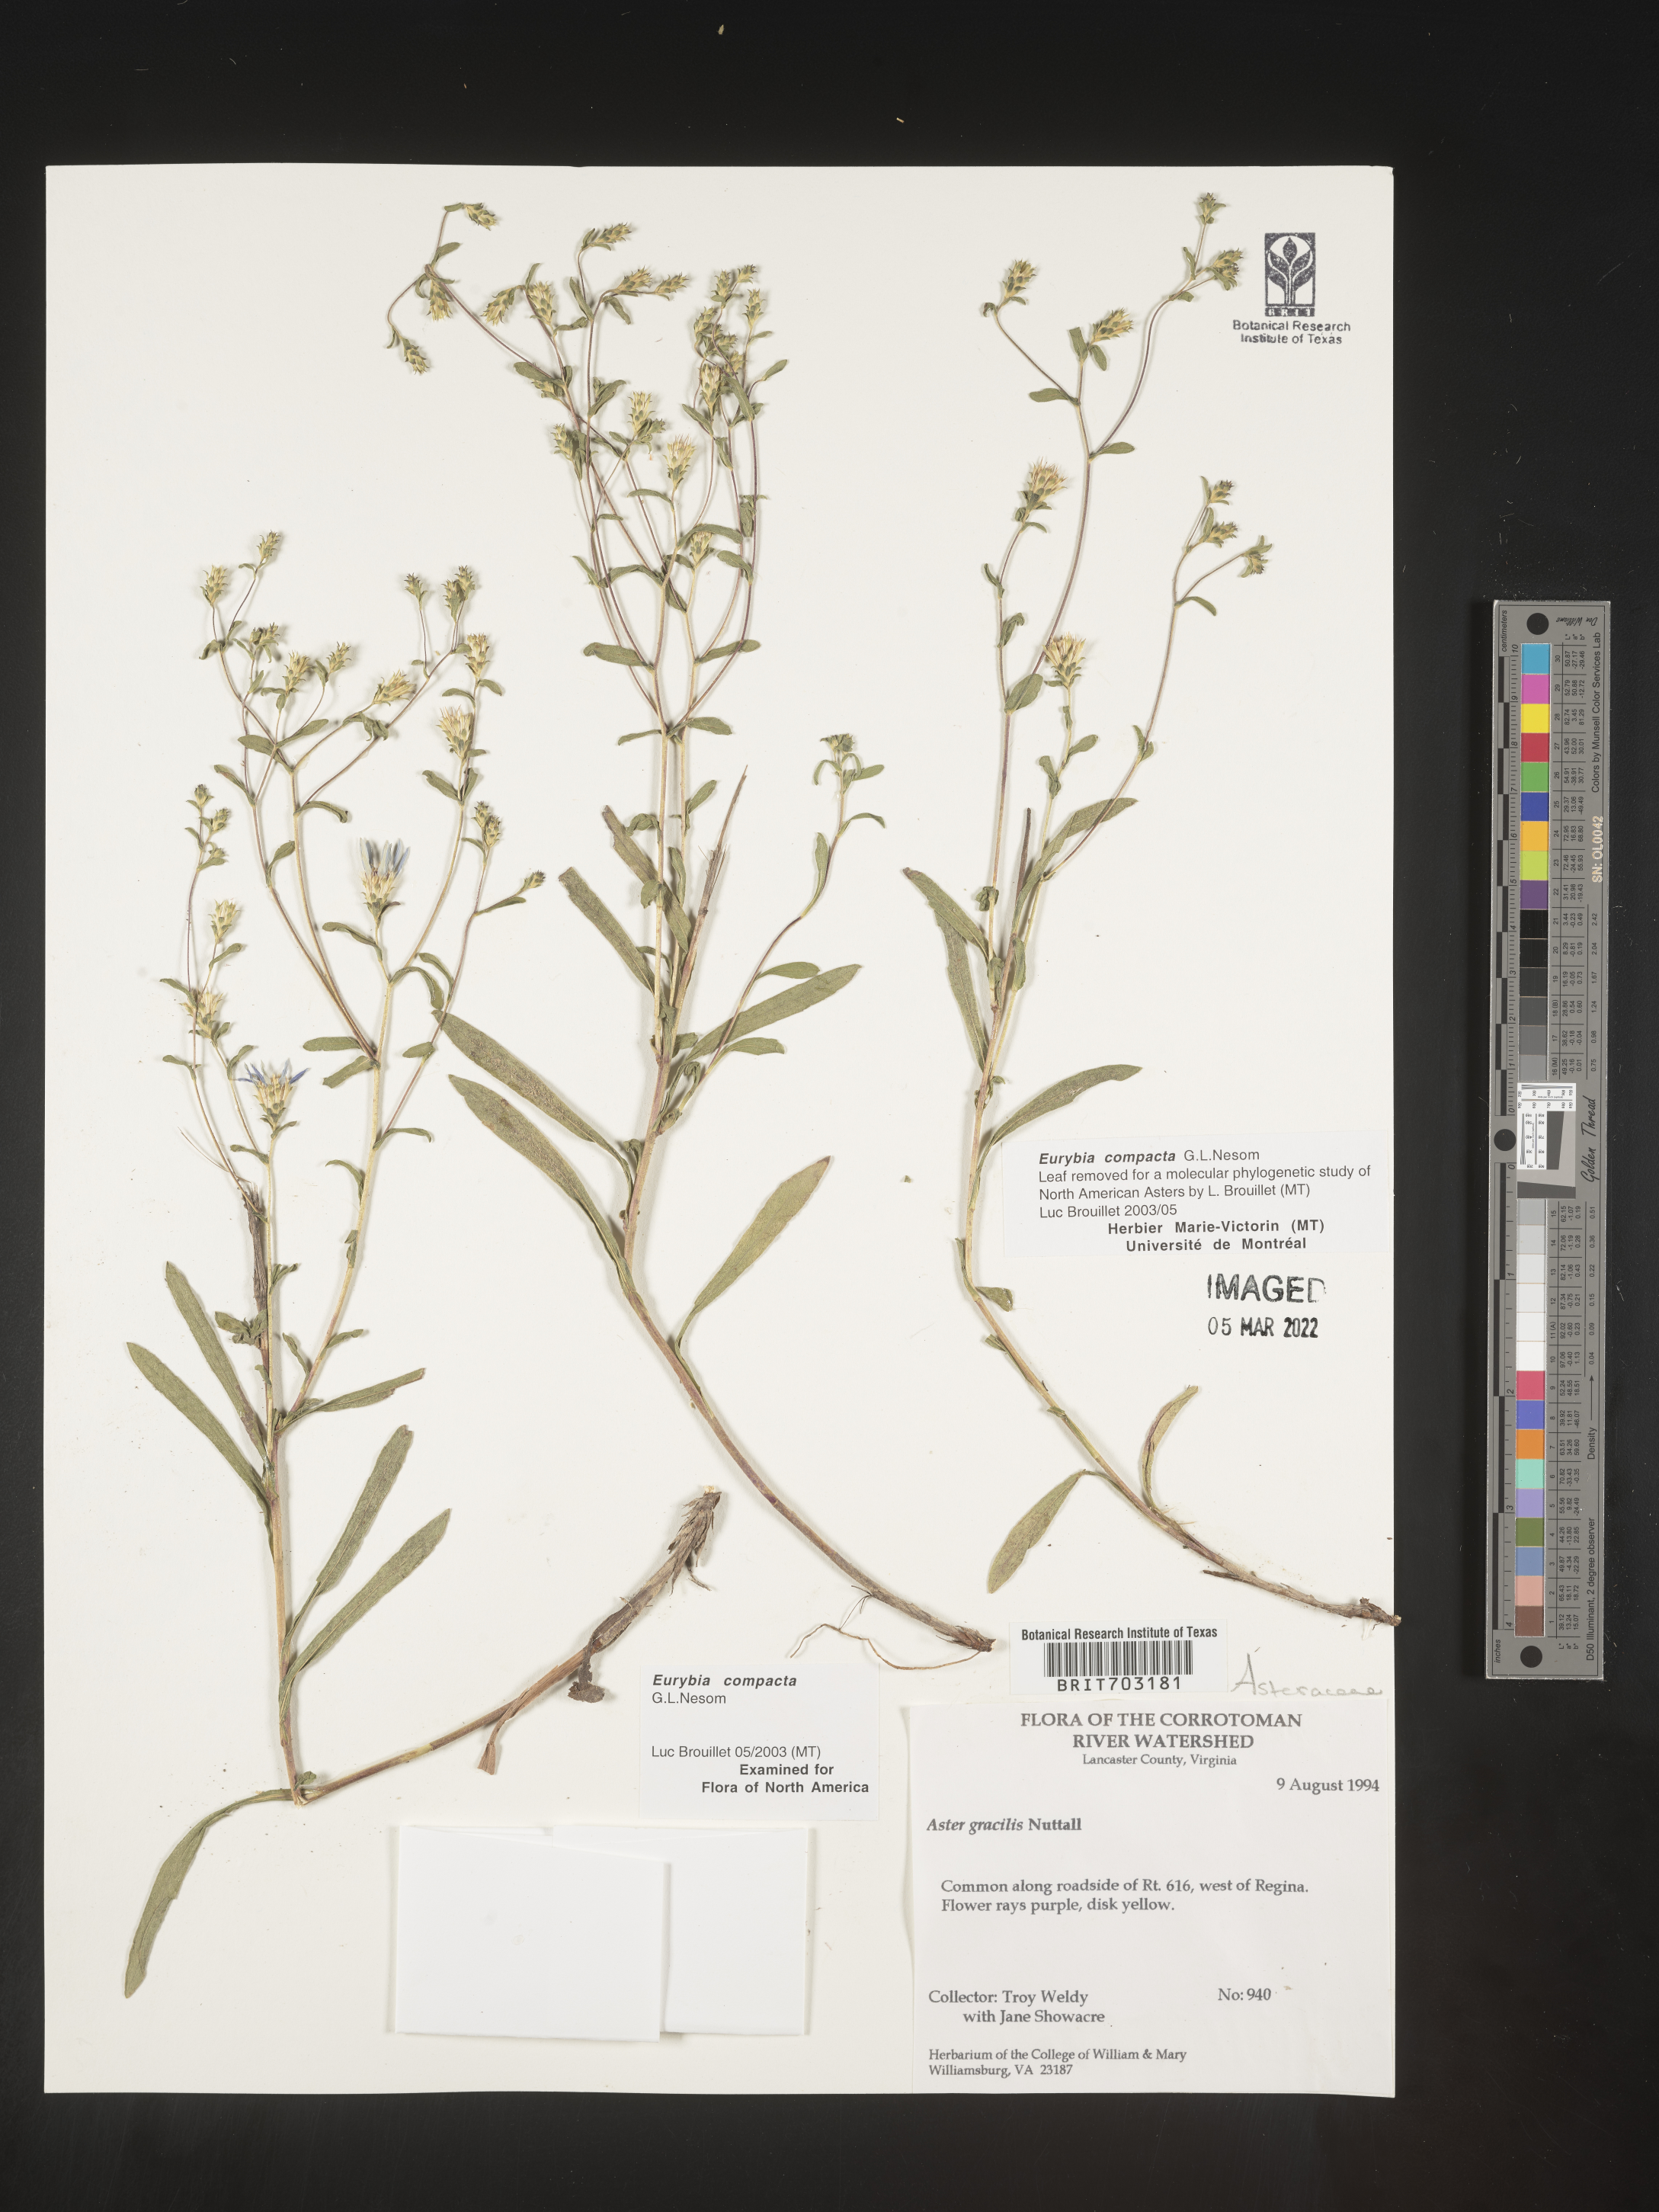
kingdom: Plantae
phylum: Tracheophyta
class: Magnoliopsida
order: Asterales
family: Asteraceae
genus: Eurybia
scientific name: Eurybia compacta
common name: Slender aster
